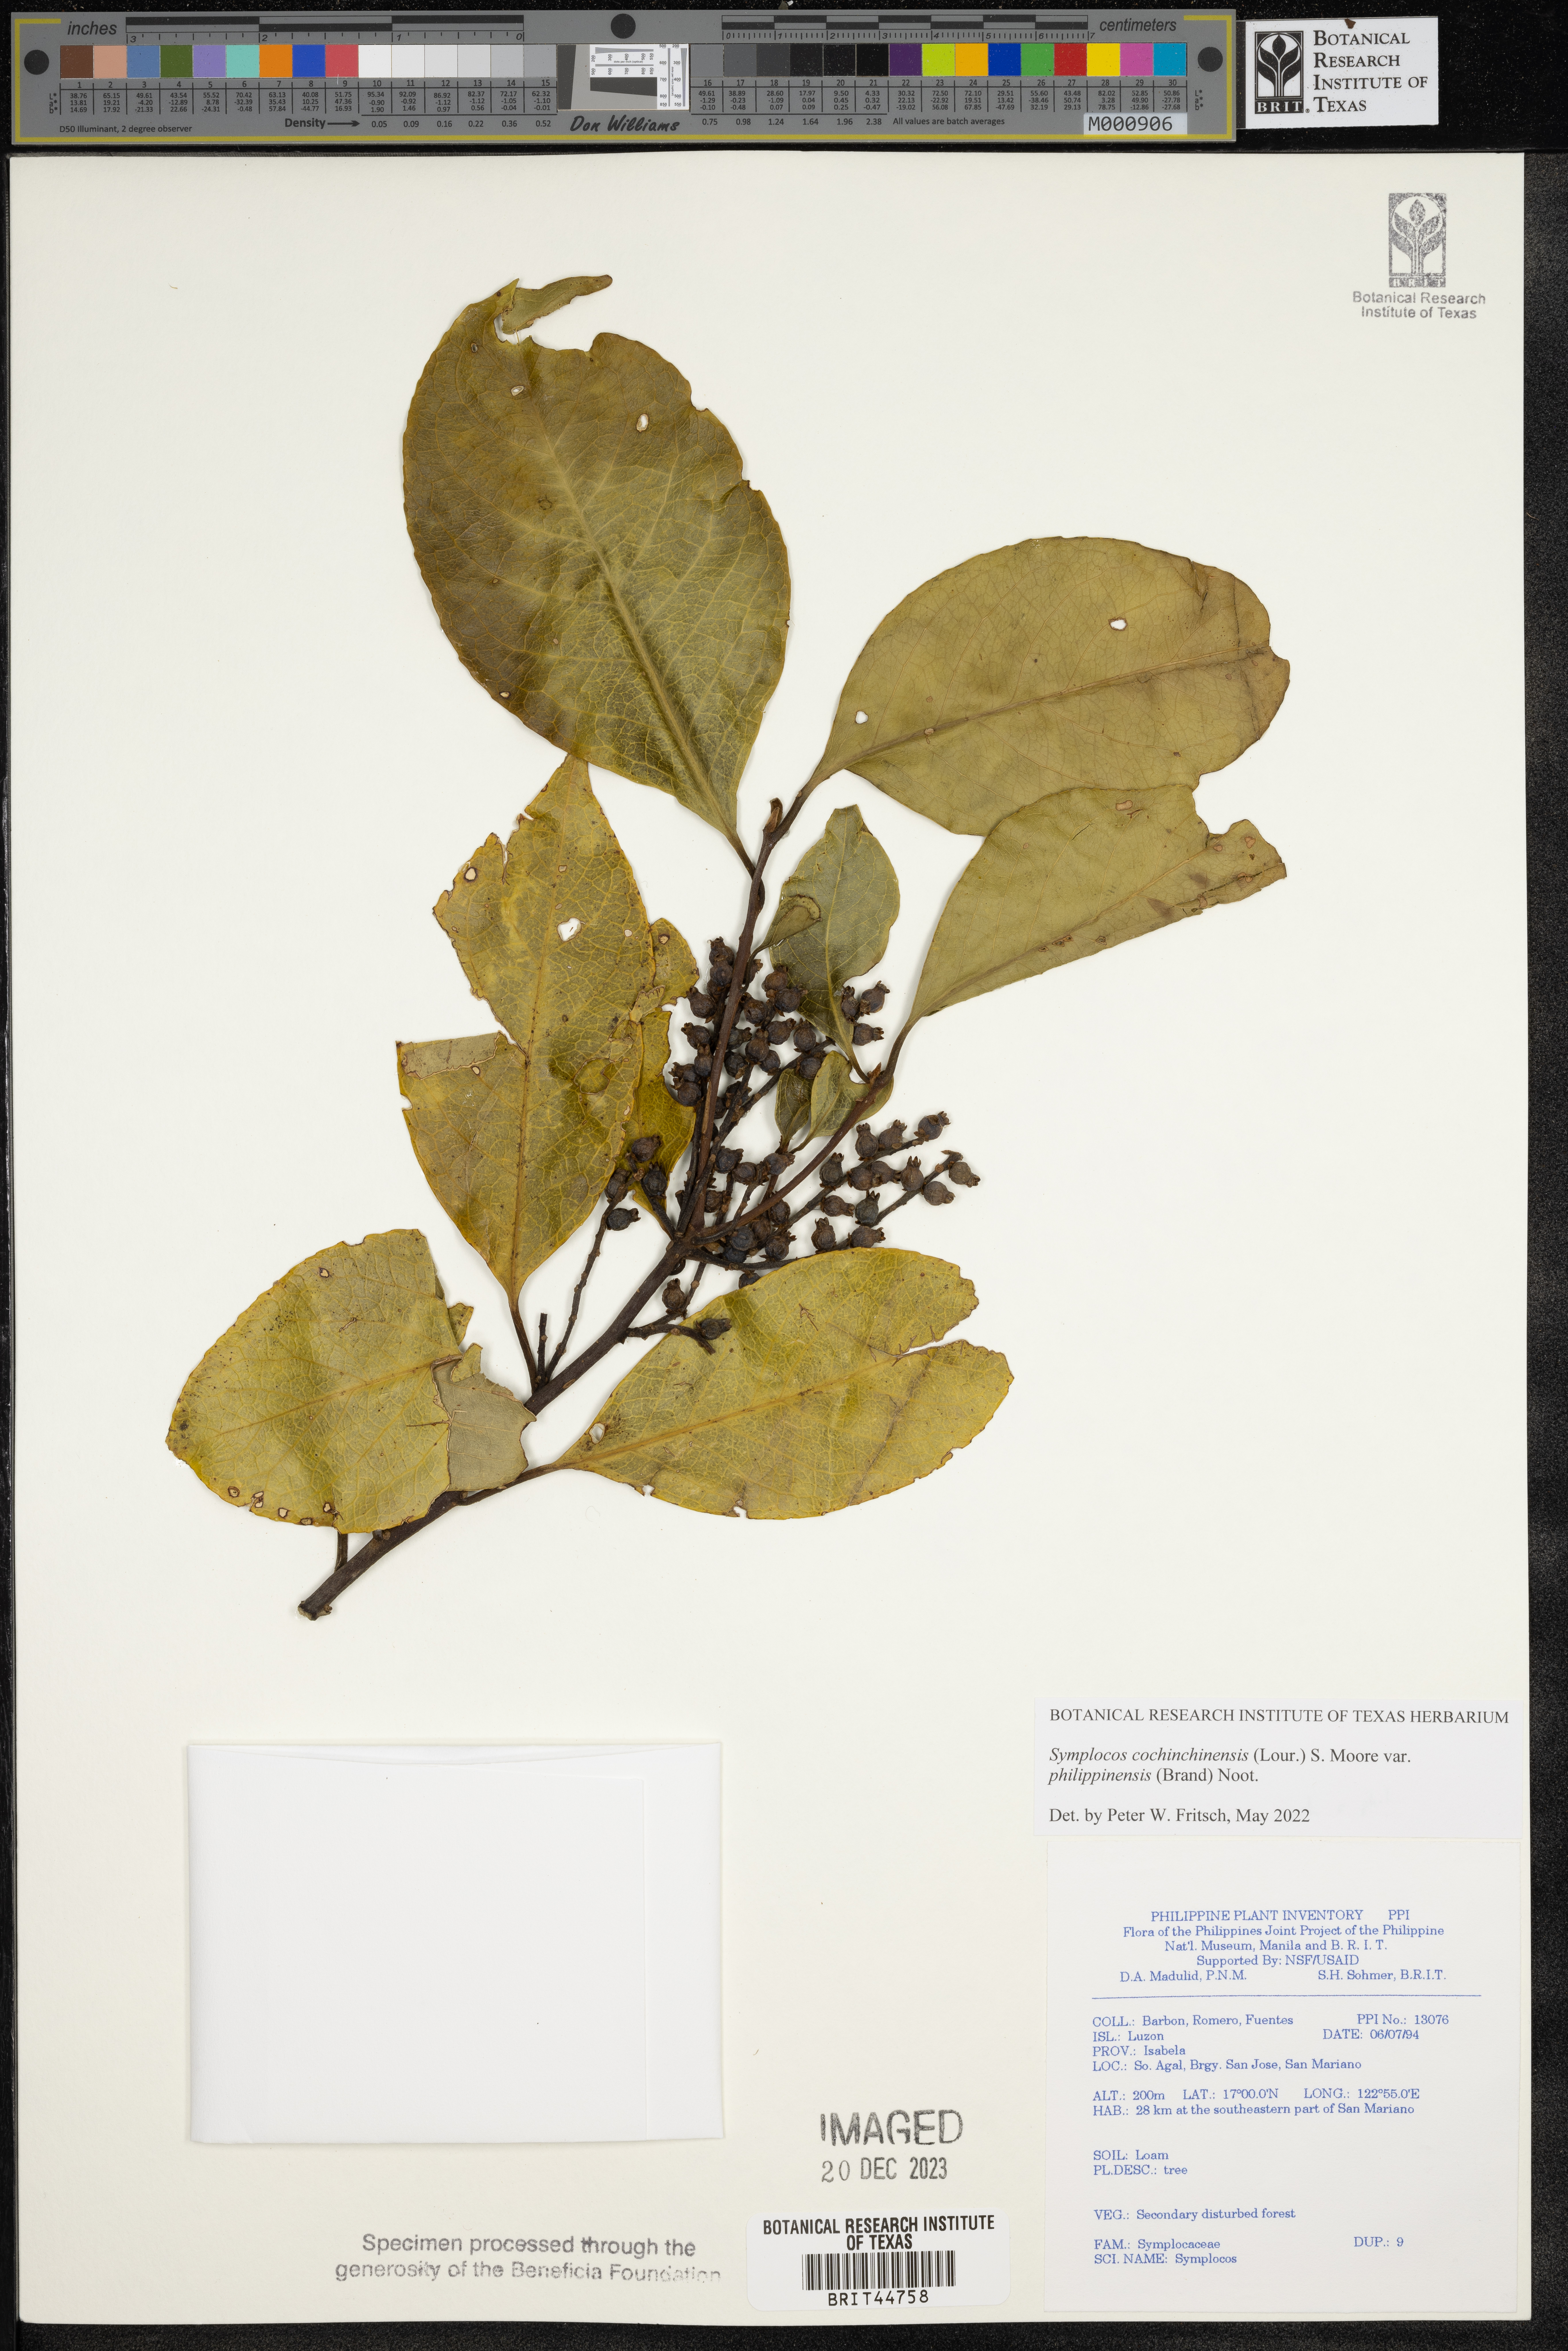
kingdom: Plantae
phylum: Tracheophyta
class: Magnoliopsida
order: Ericales
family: Symplocaceae
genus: Symplocos
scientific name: Symplocos
